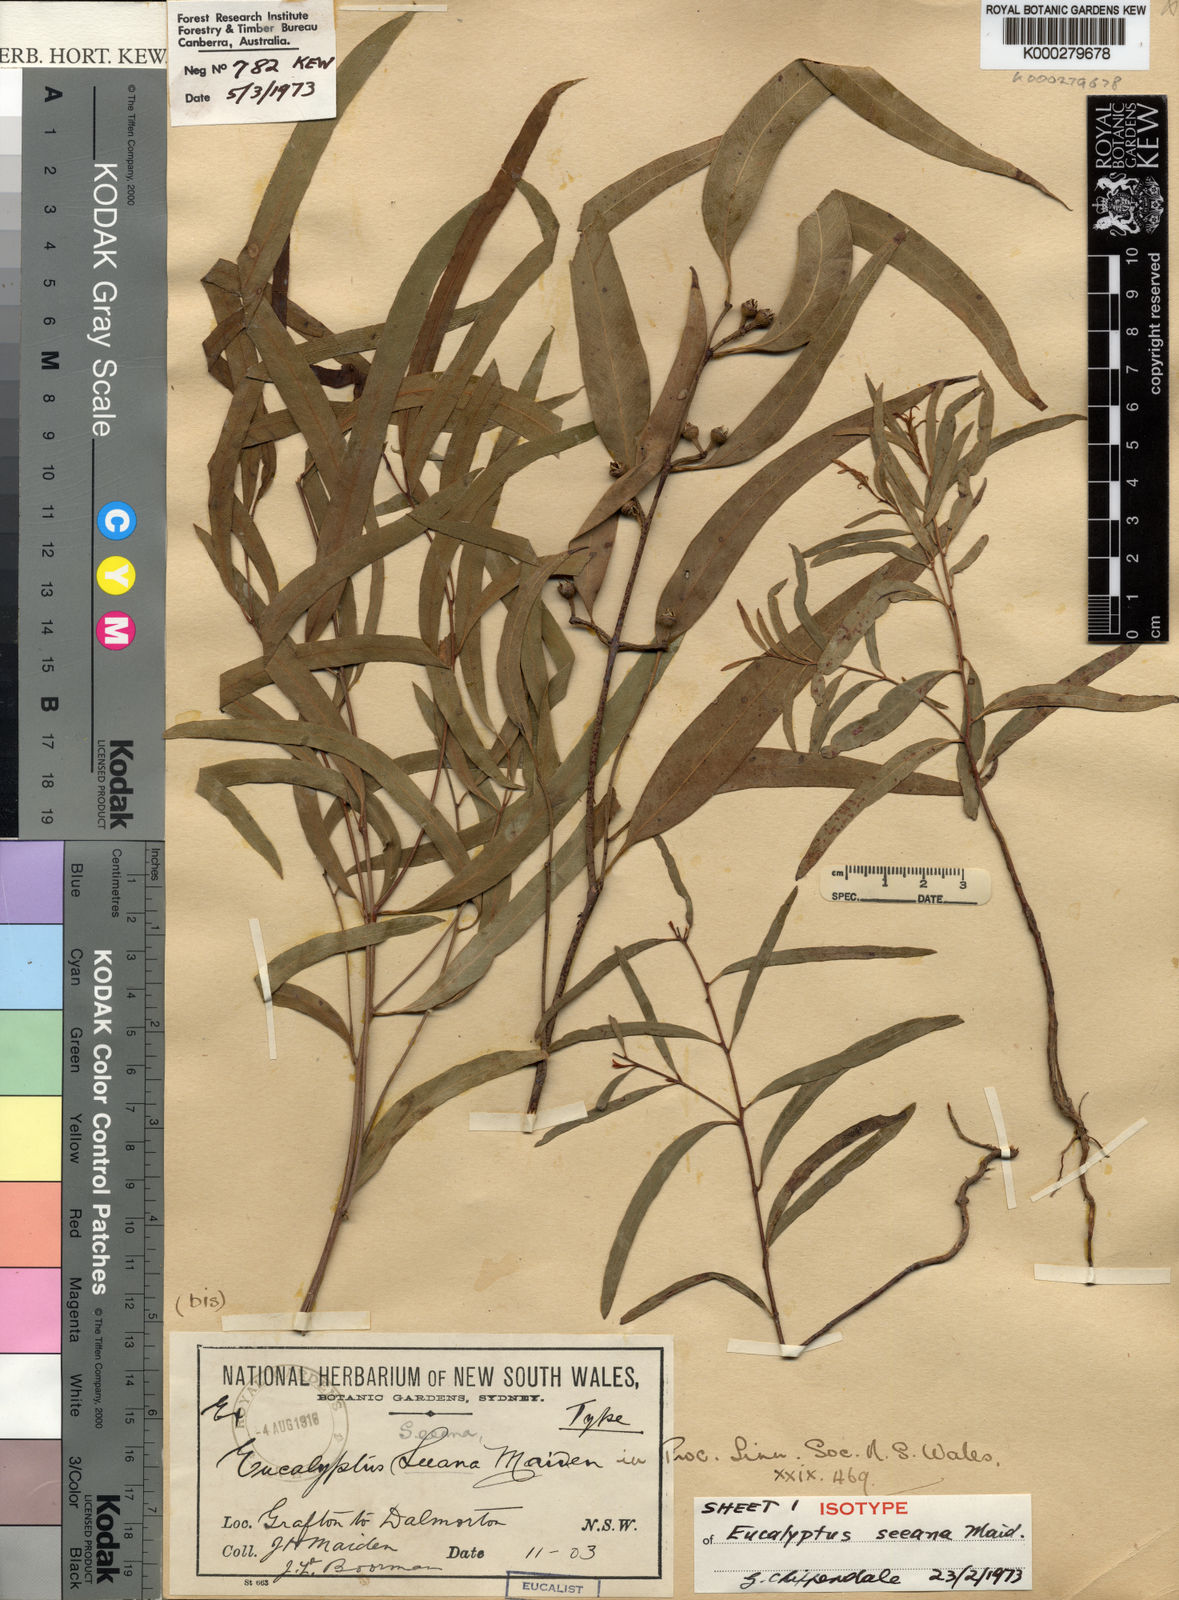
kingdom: Plantae
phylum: Tracheophyta
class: Magnoliopsida
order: Myrtales
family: Myrtaceae
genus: Eucalyptus
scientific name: Eucalyptus seeana
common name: Narrow-leaved red gum
